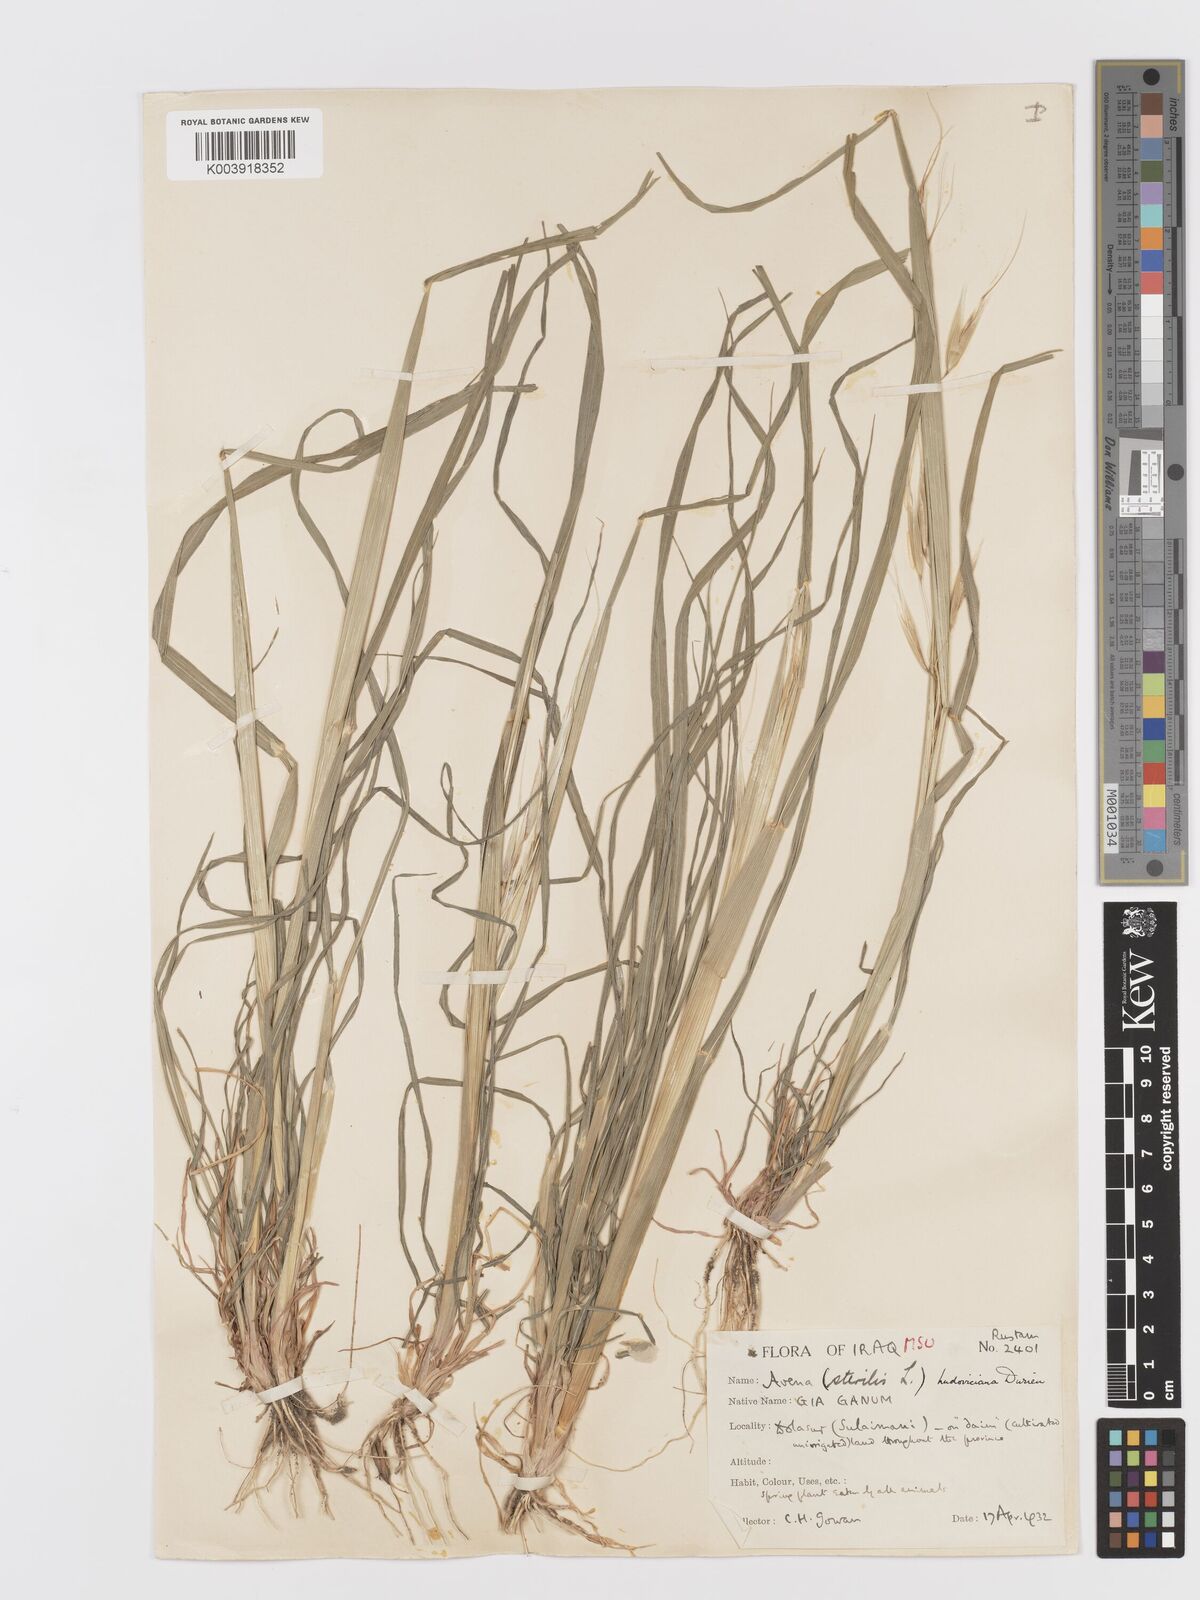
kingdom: Plantae
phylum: Tracheophyta
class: Liliopsida
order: Poales
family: Poaceae
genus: Avena
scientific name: Avena sterilis
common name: Animated oat
